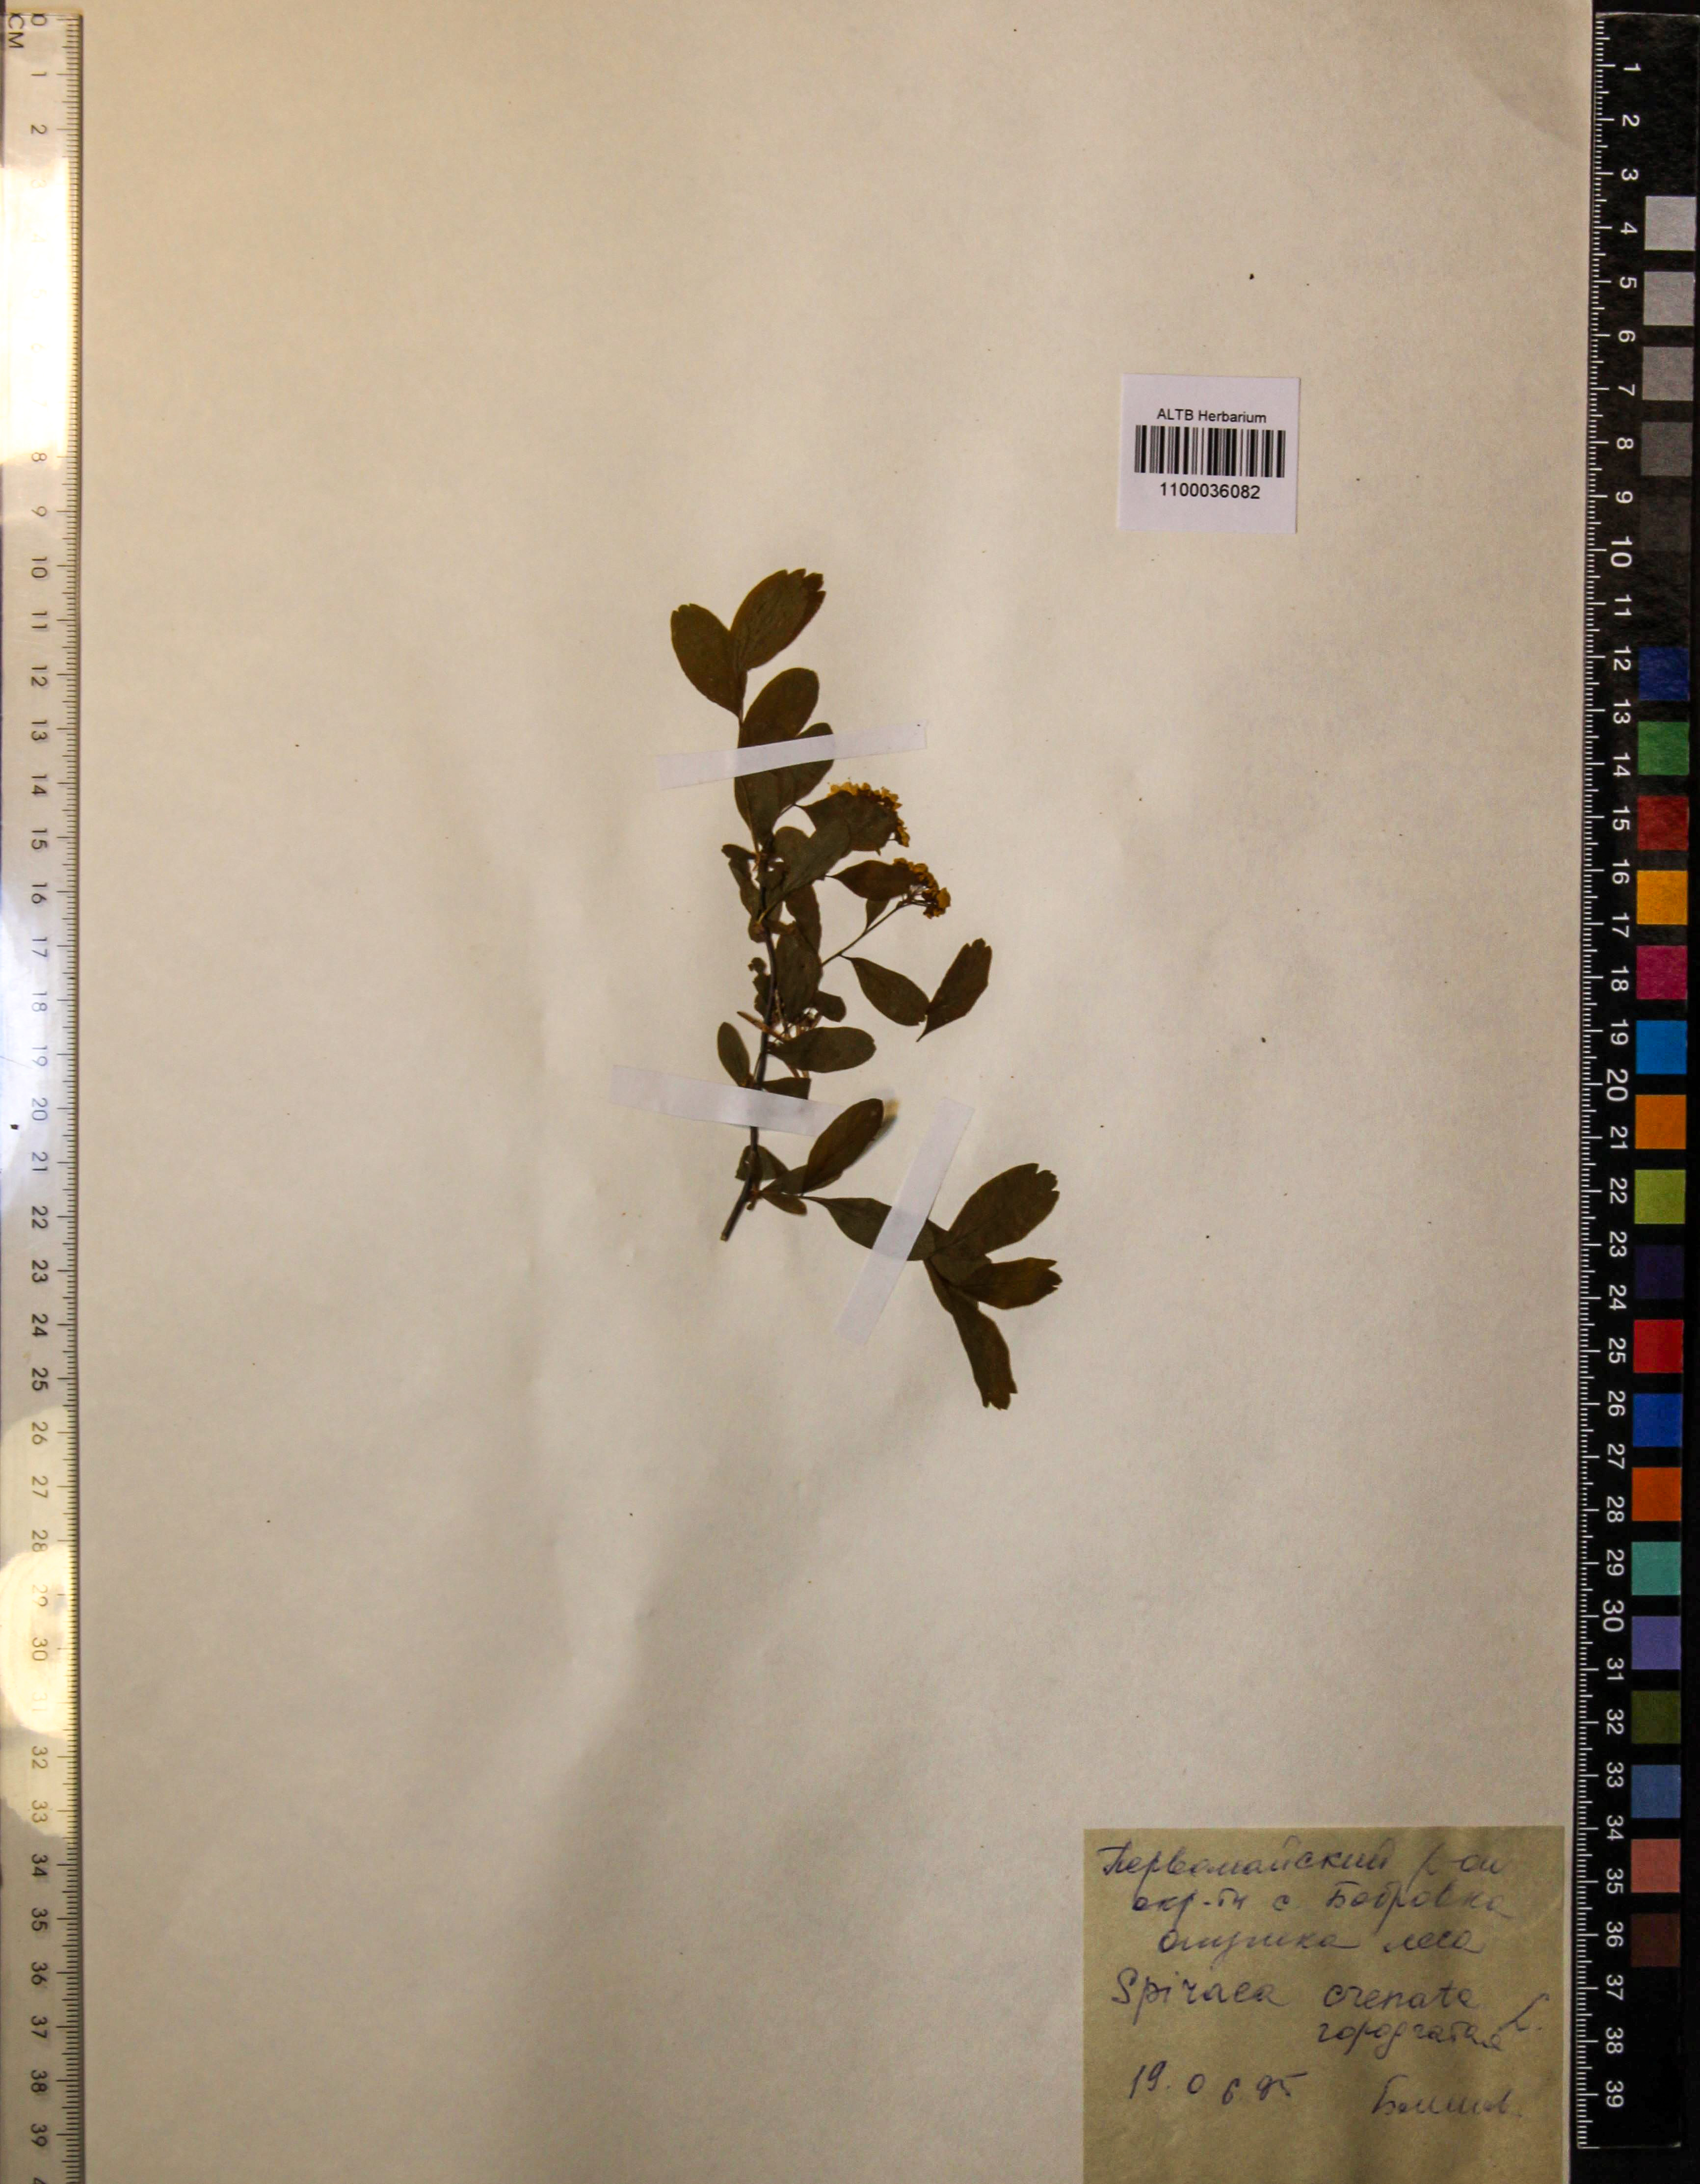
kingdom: Plantae
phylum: Tracheophyta
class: Magnoliopsida
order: Rosales
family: Rosaceae
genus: Spiraea
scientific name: Spiraea crenata
